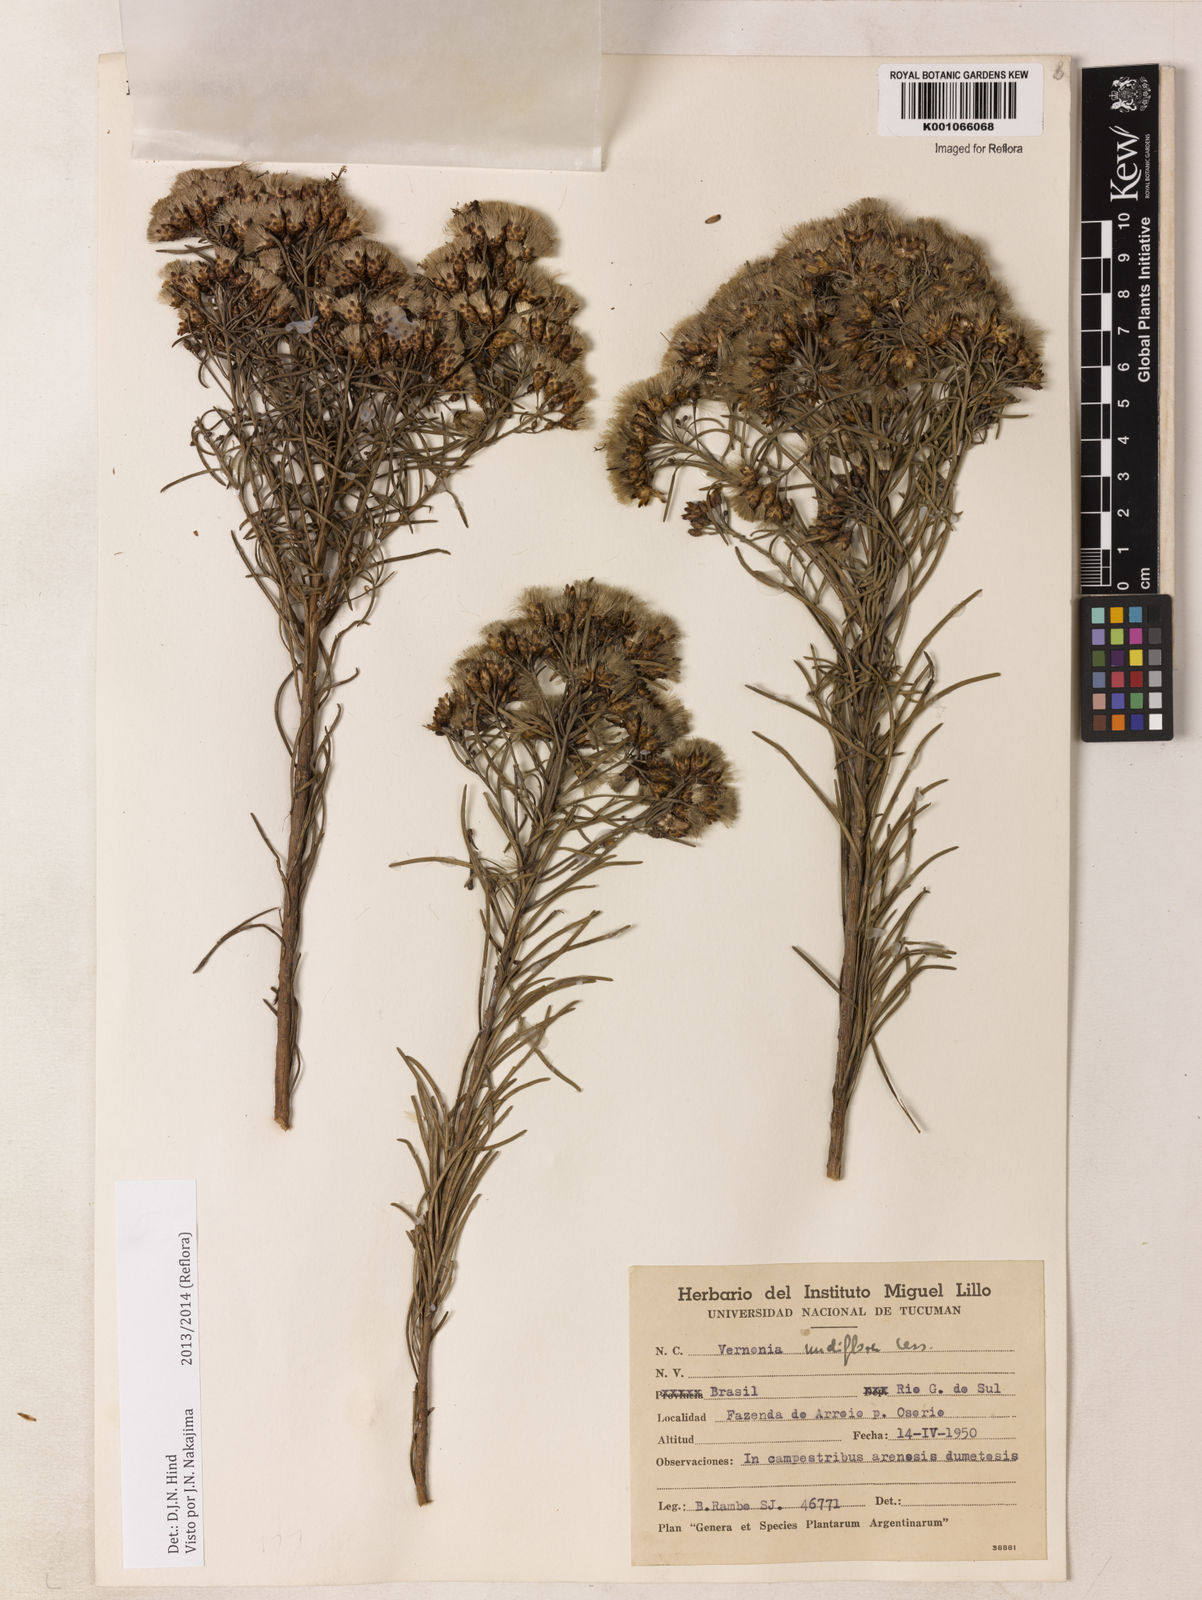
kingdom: Plantae
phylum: Tracheophyta
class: Magnoliopsida
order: Asterales
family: Asteraceae
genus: Vernonanthura
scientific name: Vernonanthura nudiflora
